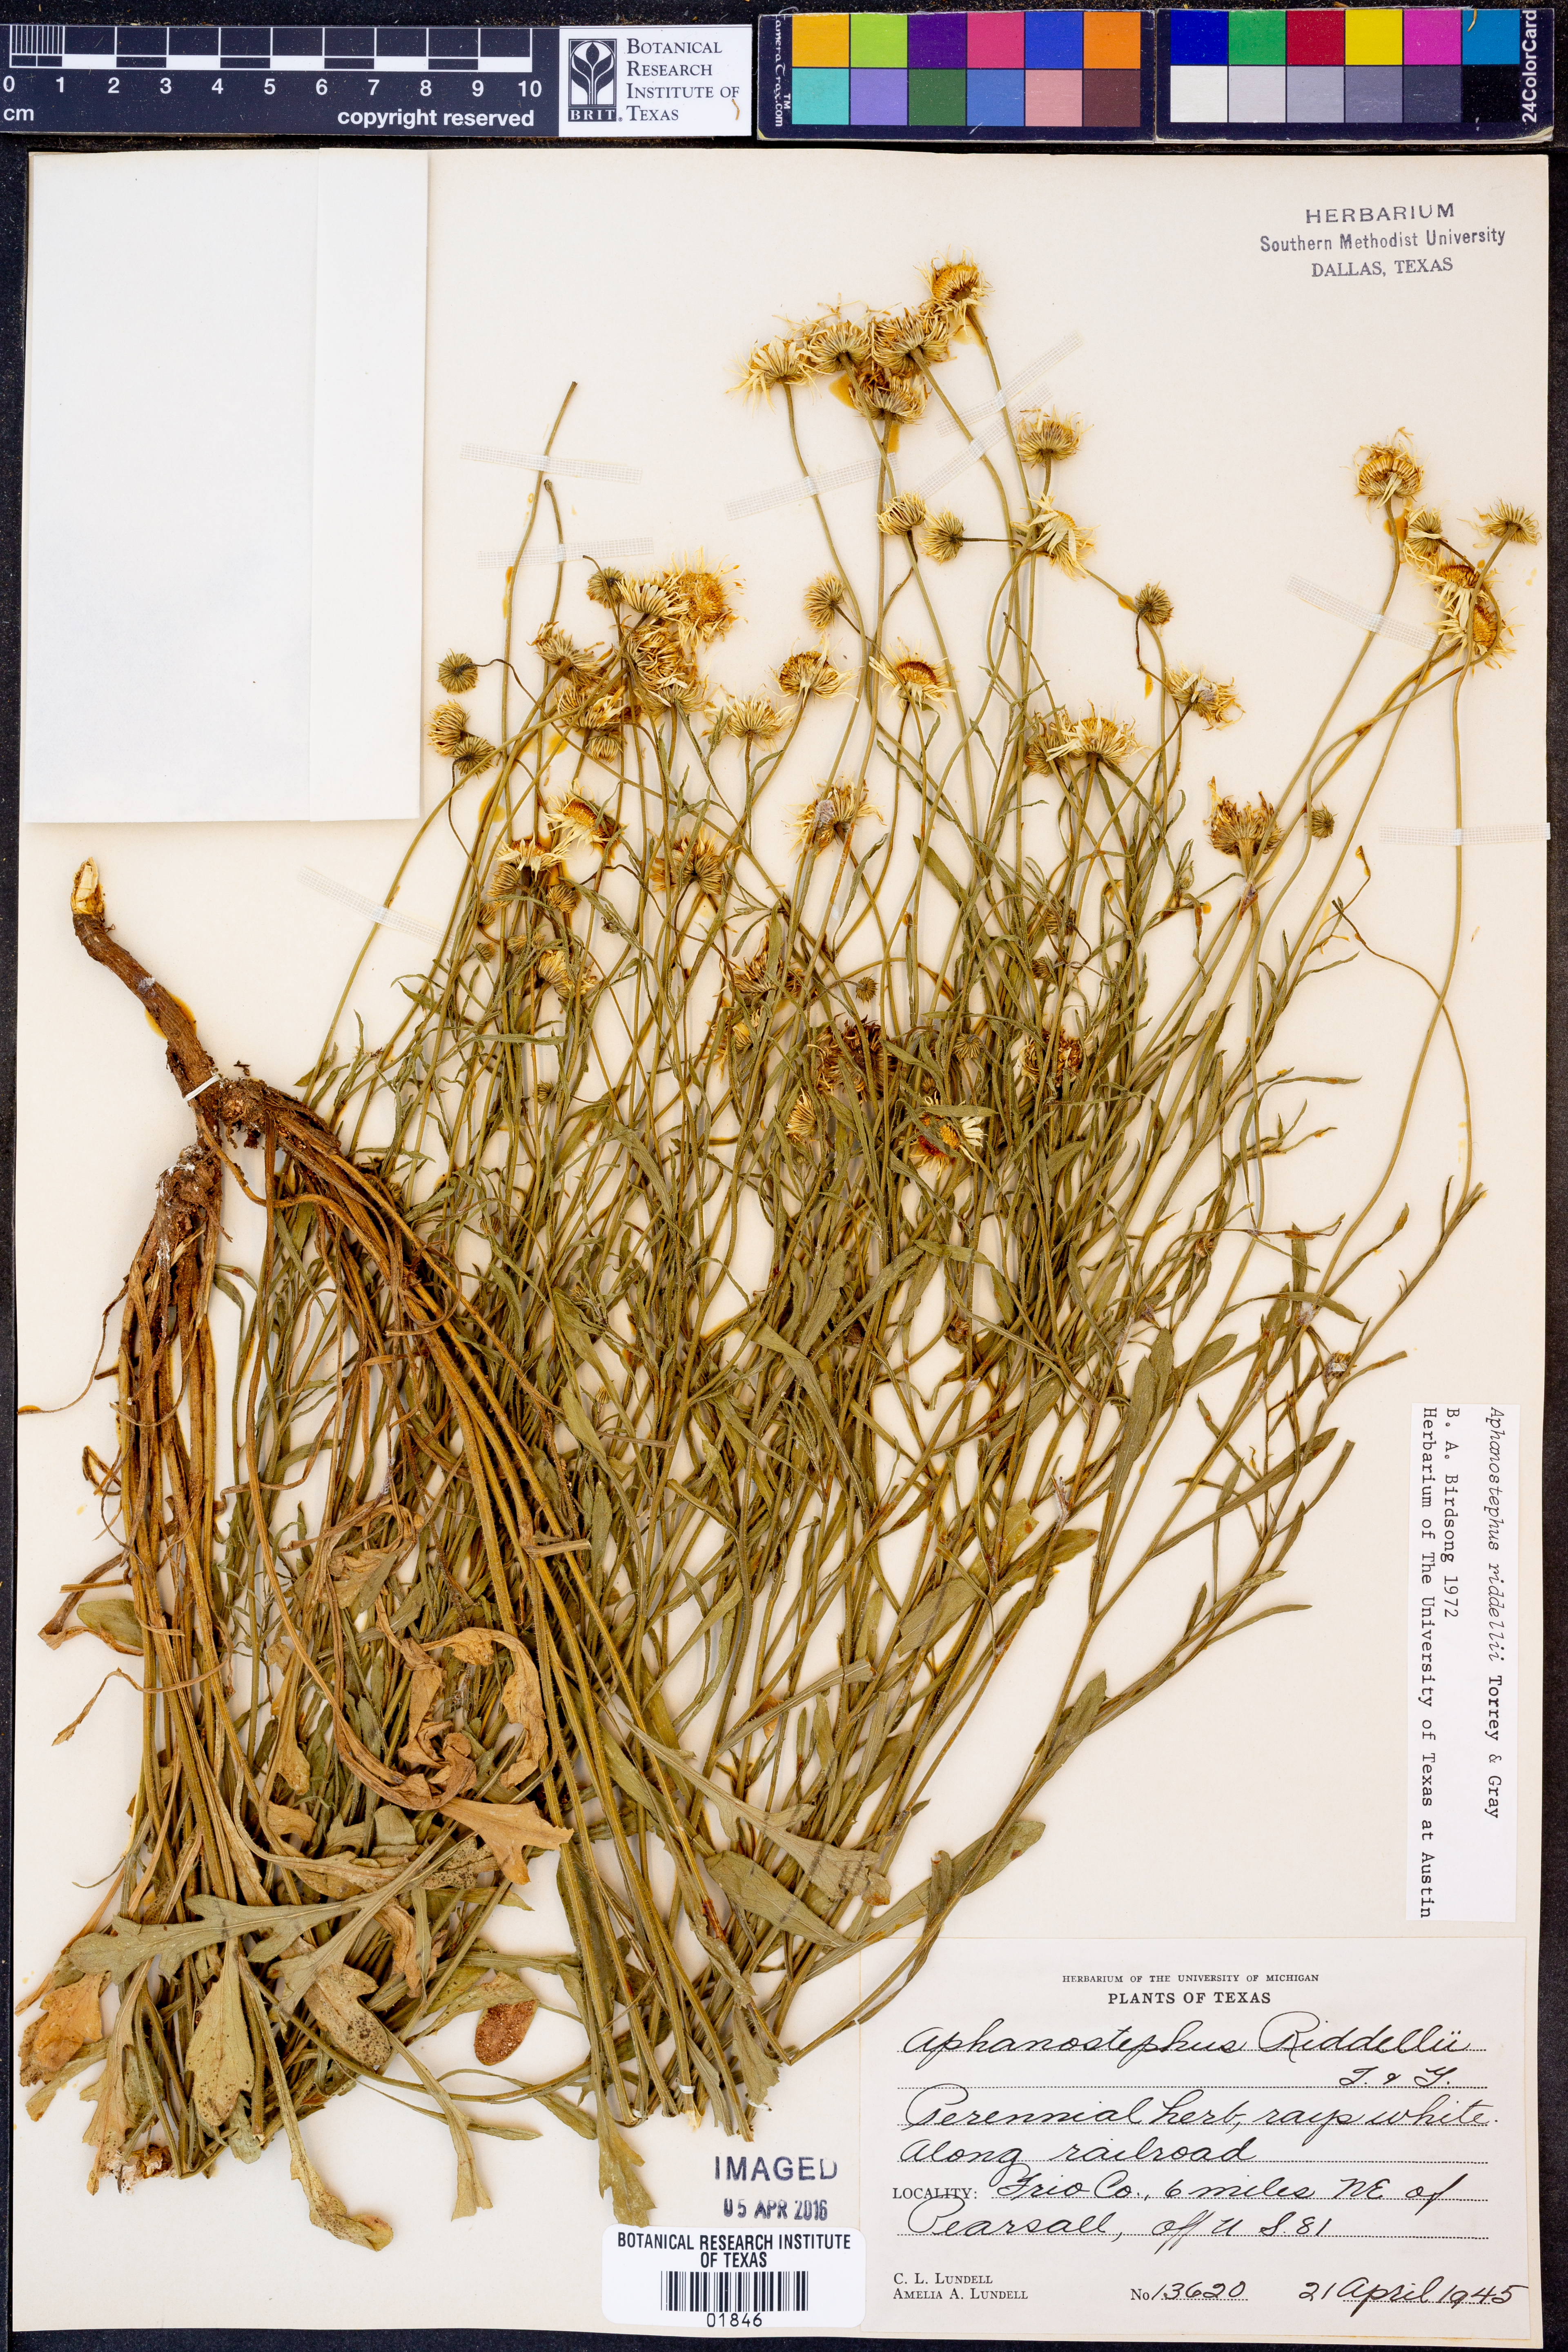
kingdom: Plantae
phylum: Tracheophyta
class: Magnoliopsida
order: Asterales
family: Asteraceae
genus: Aphanostephus
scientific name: Aphanostephus riddellii
